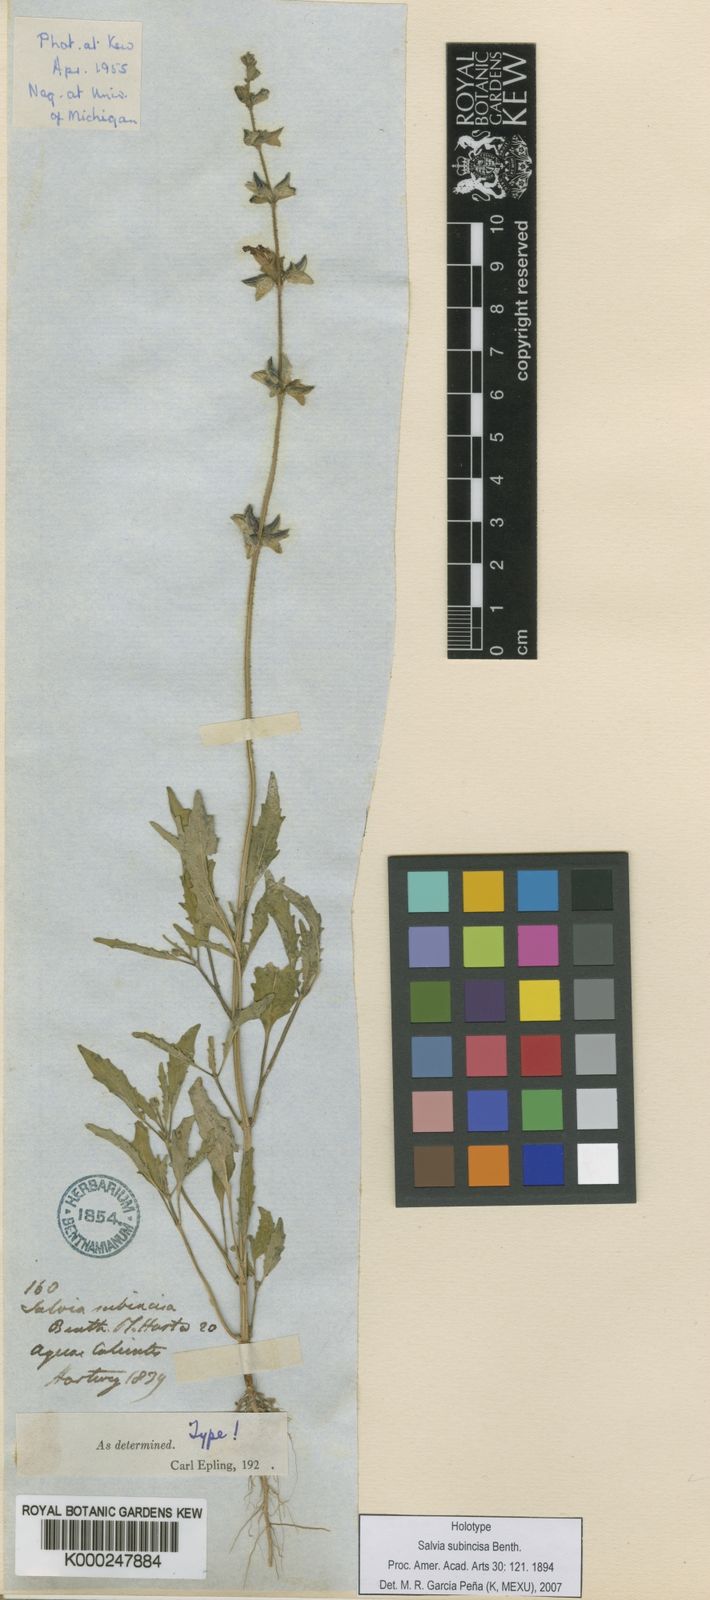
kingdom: Plantae
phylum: Tracheophyta
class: Magnoliopsida
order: Lamiales
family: Lamiaceae
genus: Salvia
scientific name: Salvia subincisa
